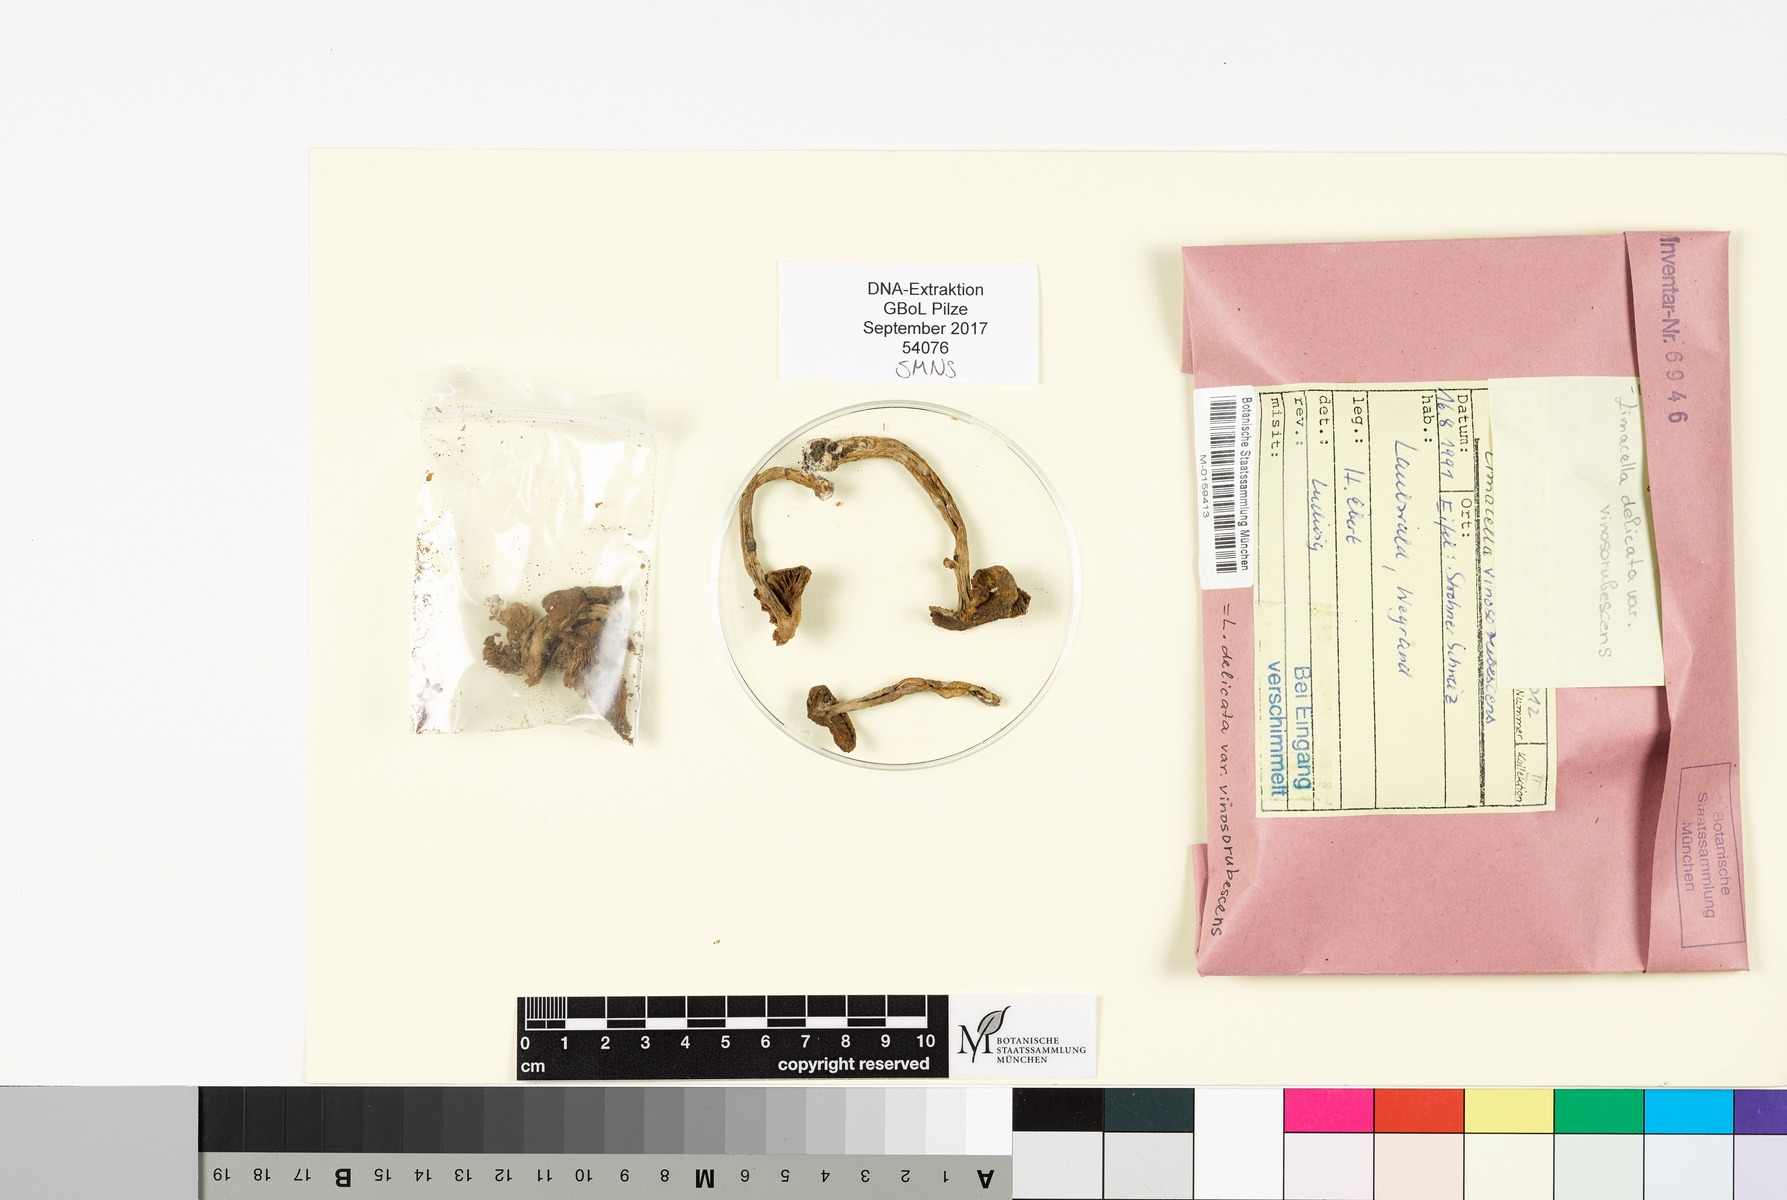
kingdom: Fungi
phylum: Basidiomycota
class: Agaricomycetes
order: Agaricales
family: Amanitaceae
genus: Limacella
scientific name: Limacella delicata
